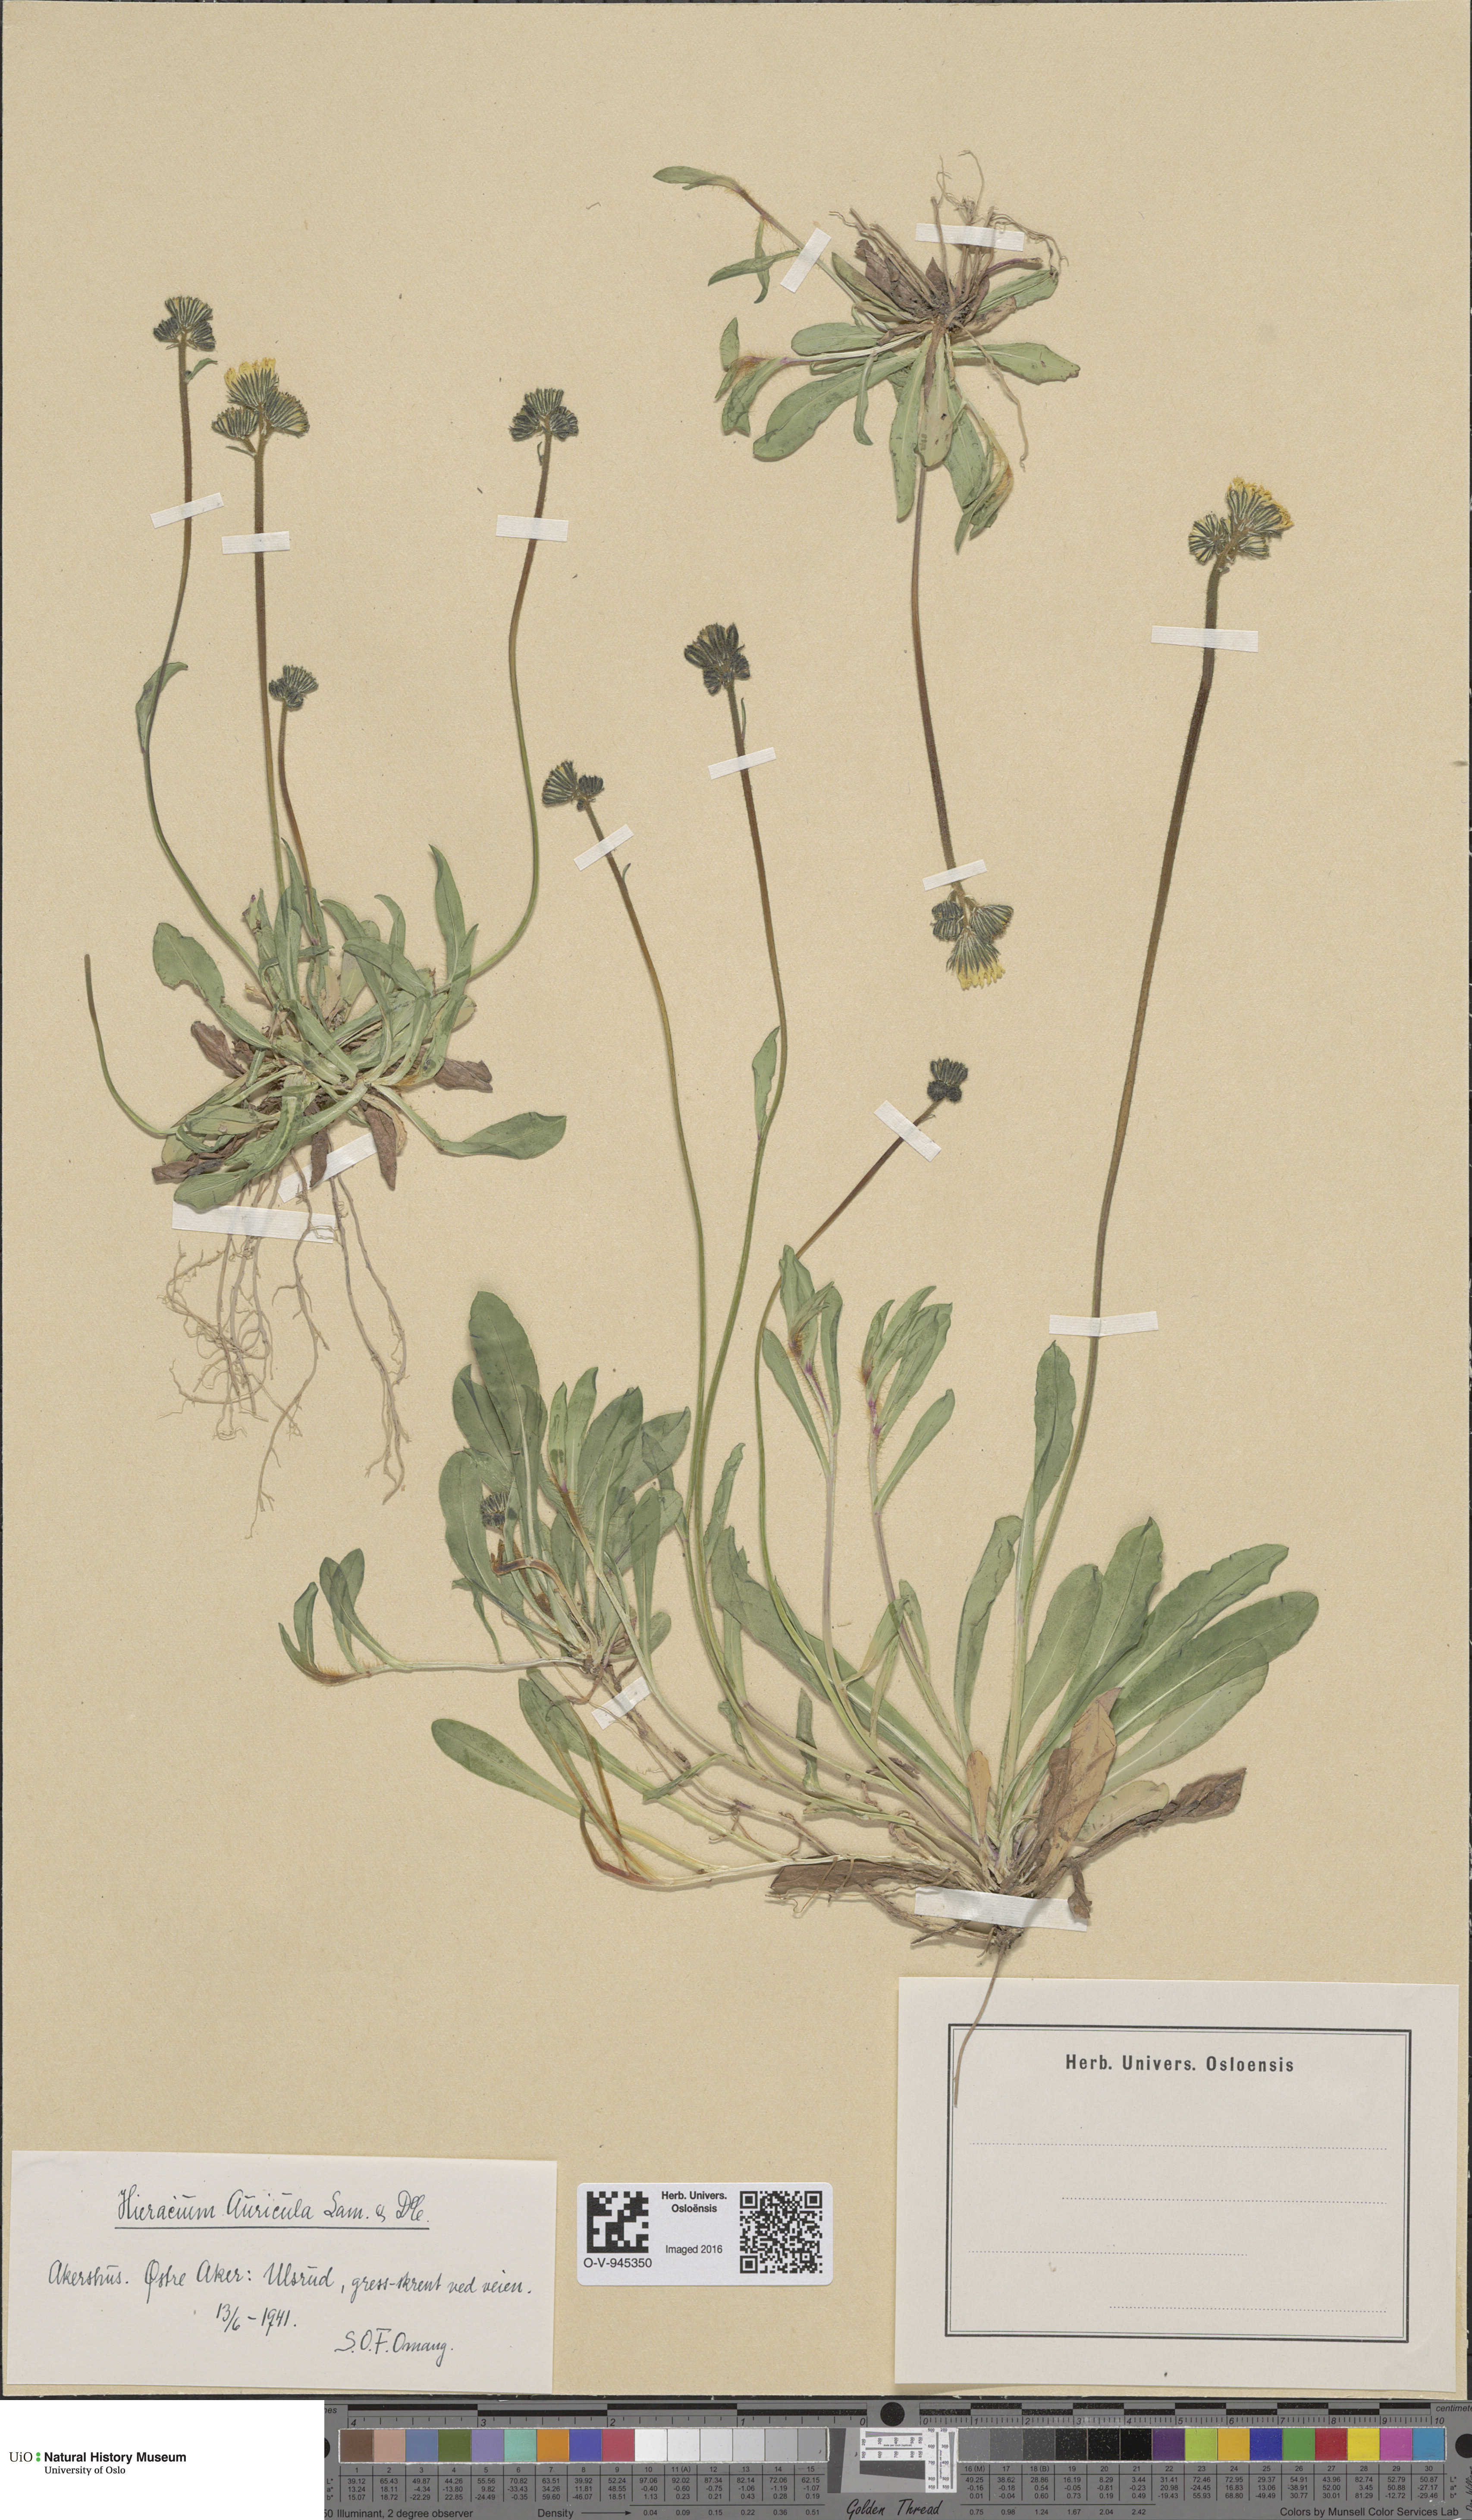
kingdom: Plantae
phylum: Tracheophyta
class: Magnoliopsida
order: Asterales
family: Asteraceae
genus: Pilosella
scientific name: Pilosella lactucella
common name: Glaucous fox-and-cubs
